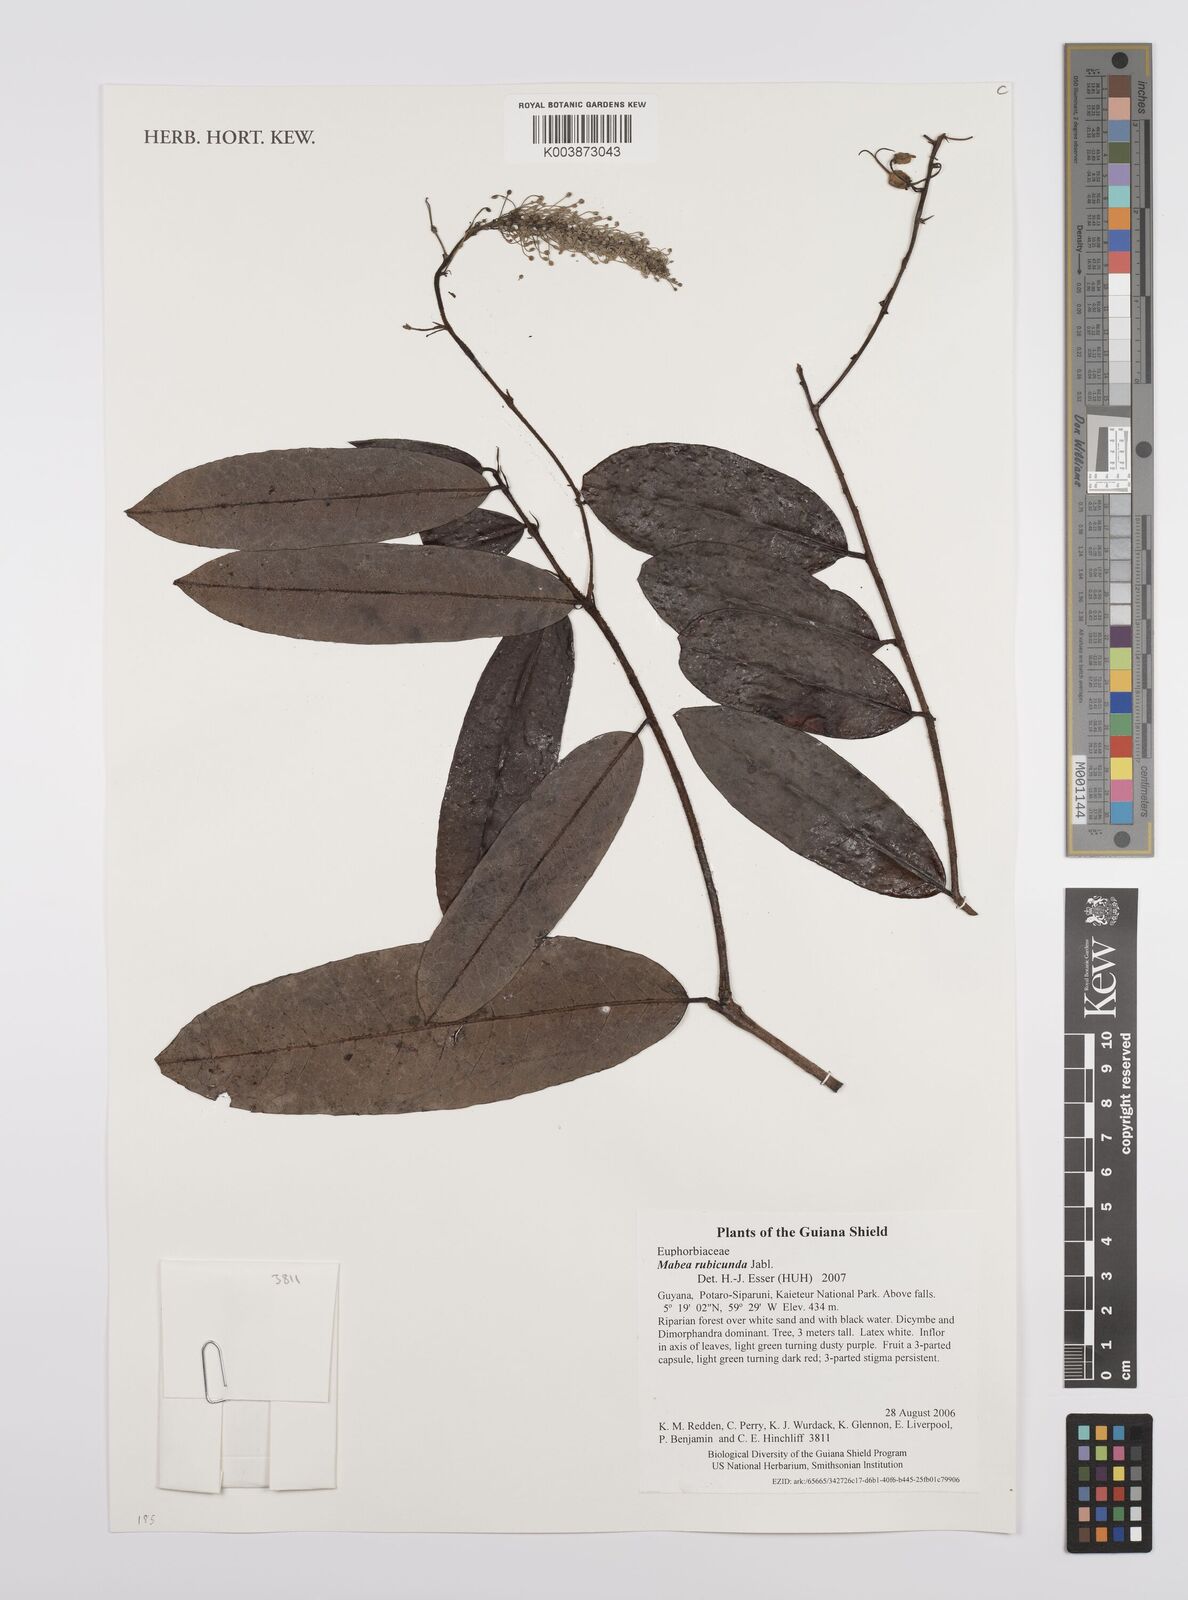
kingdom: Plantae
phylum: Tracheophyta
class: Magnoliopsida
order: Malpighiales
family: Euphorbiaceae
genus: Mabea
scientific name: Mabea rubicunda
